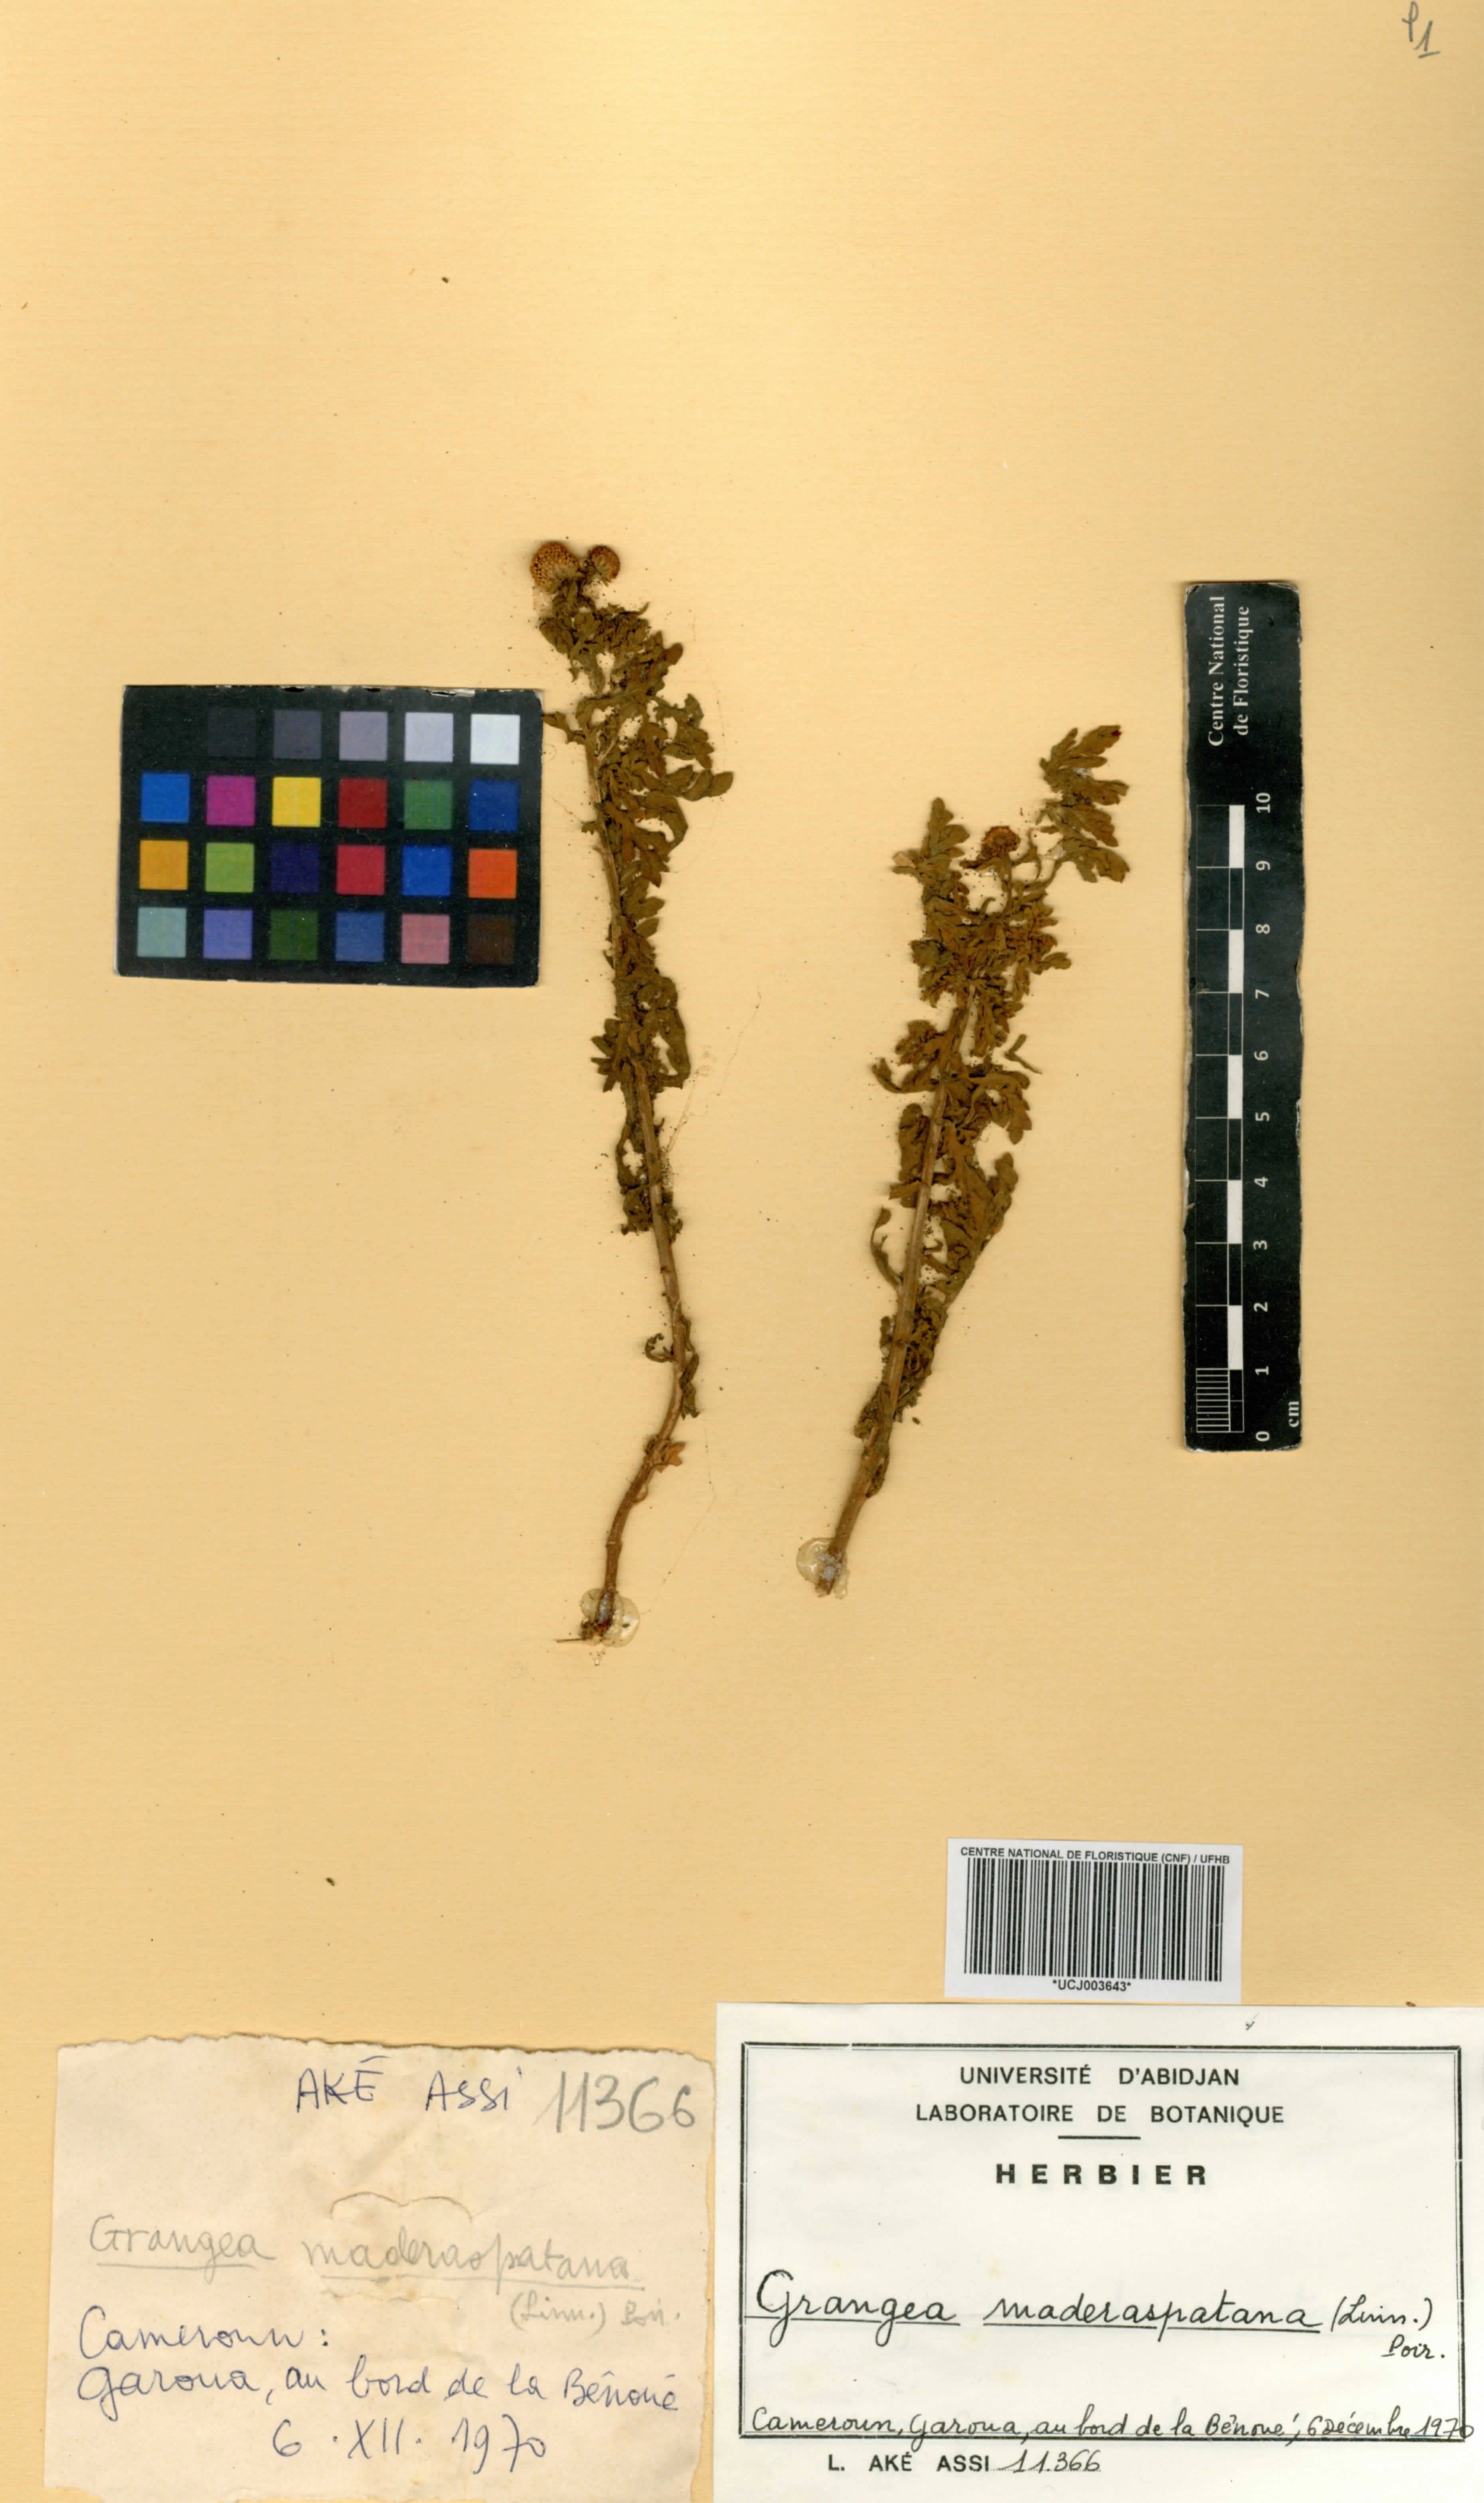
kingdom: Plantae
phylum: Tracheophyta
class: Magnoliopsida
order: Asterales
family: Asteraceae
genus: Grangea
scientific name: Grangea maderaspatana
